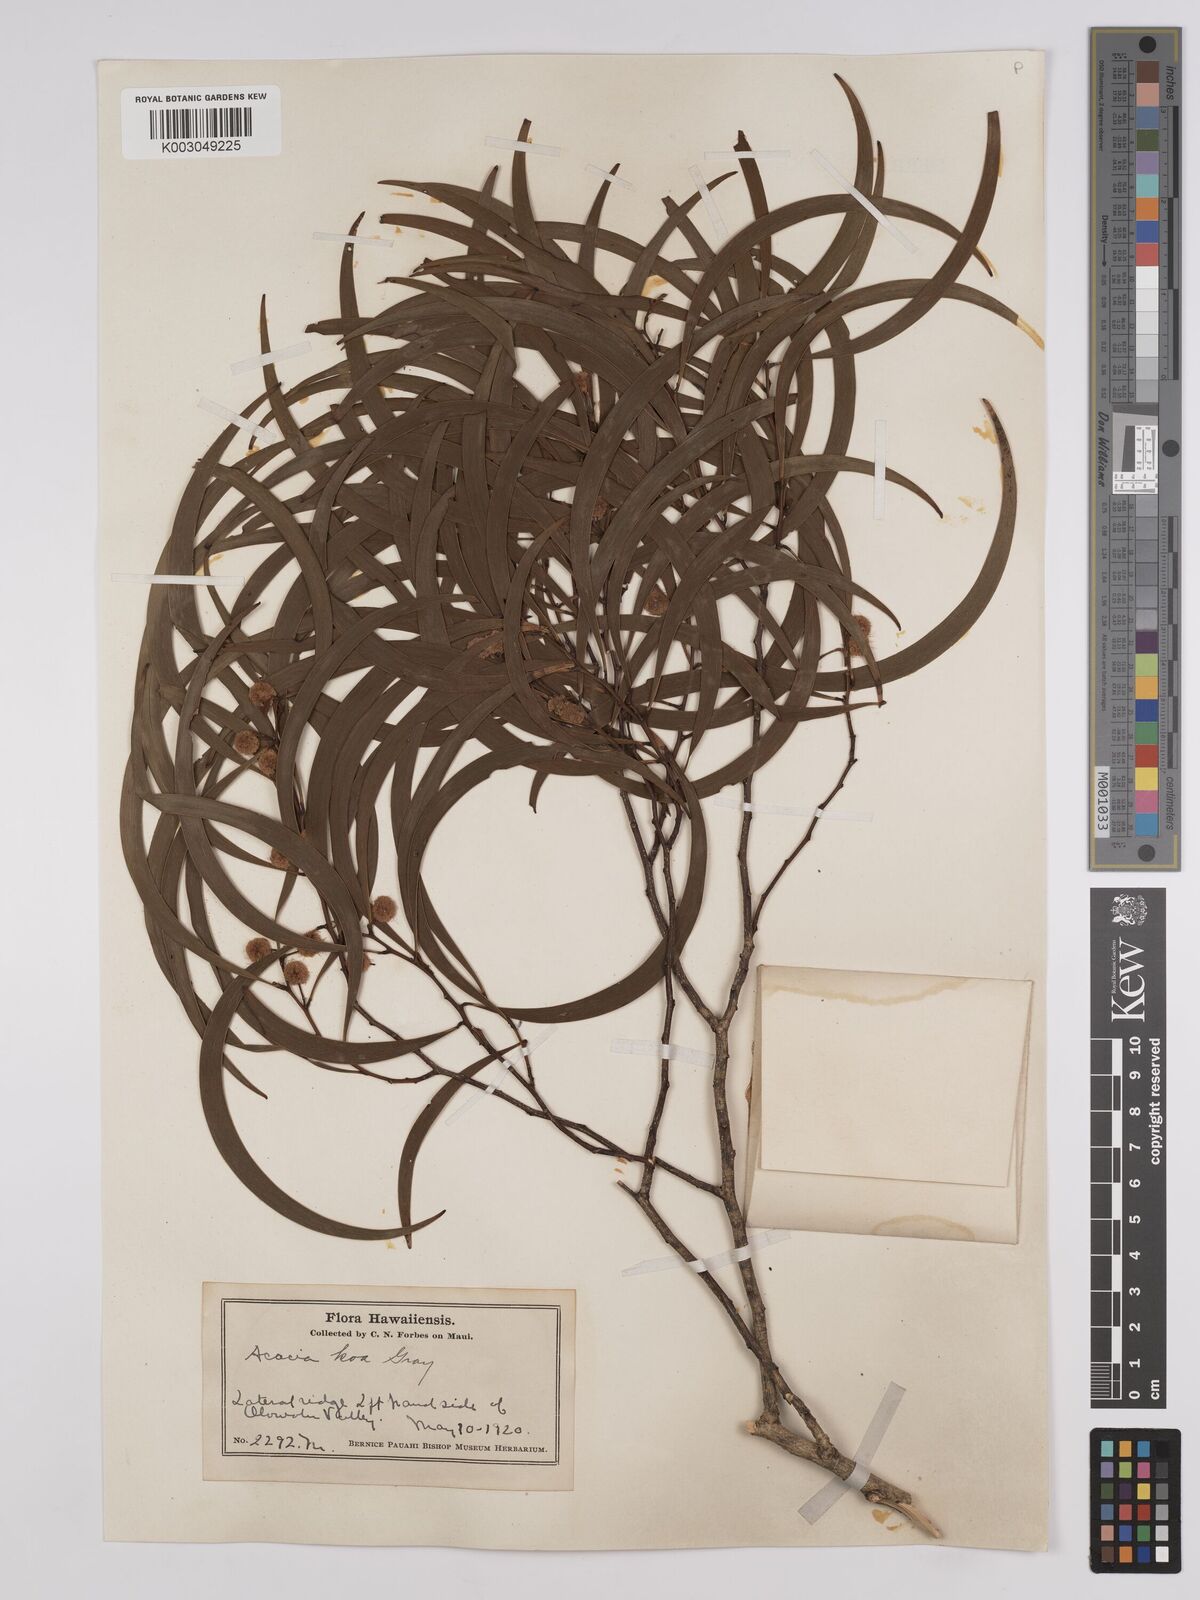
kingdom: Plantae
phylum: Tracheophyta
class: Magnoliopsida
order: Fabales
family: Fabaceae
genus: Acacia
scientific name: Acacia koa
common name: Gray koa
